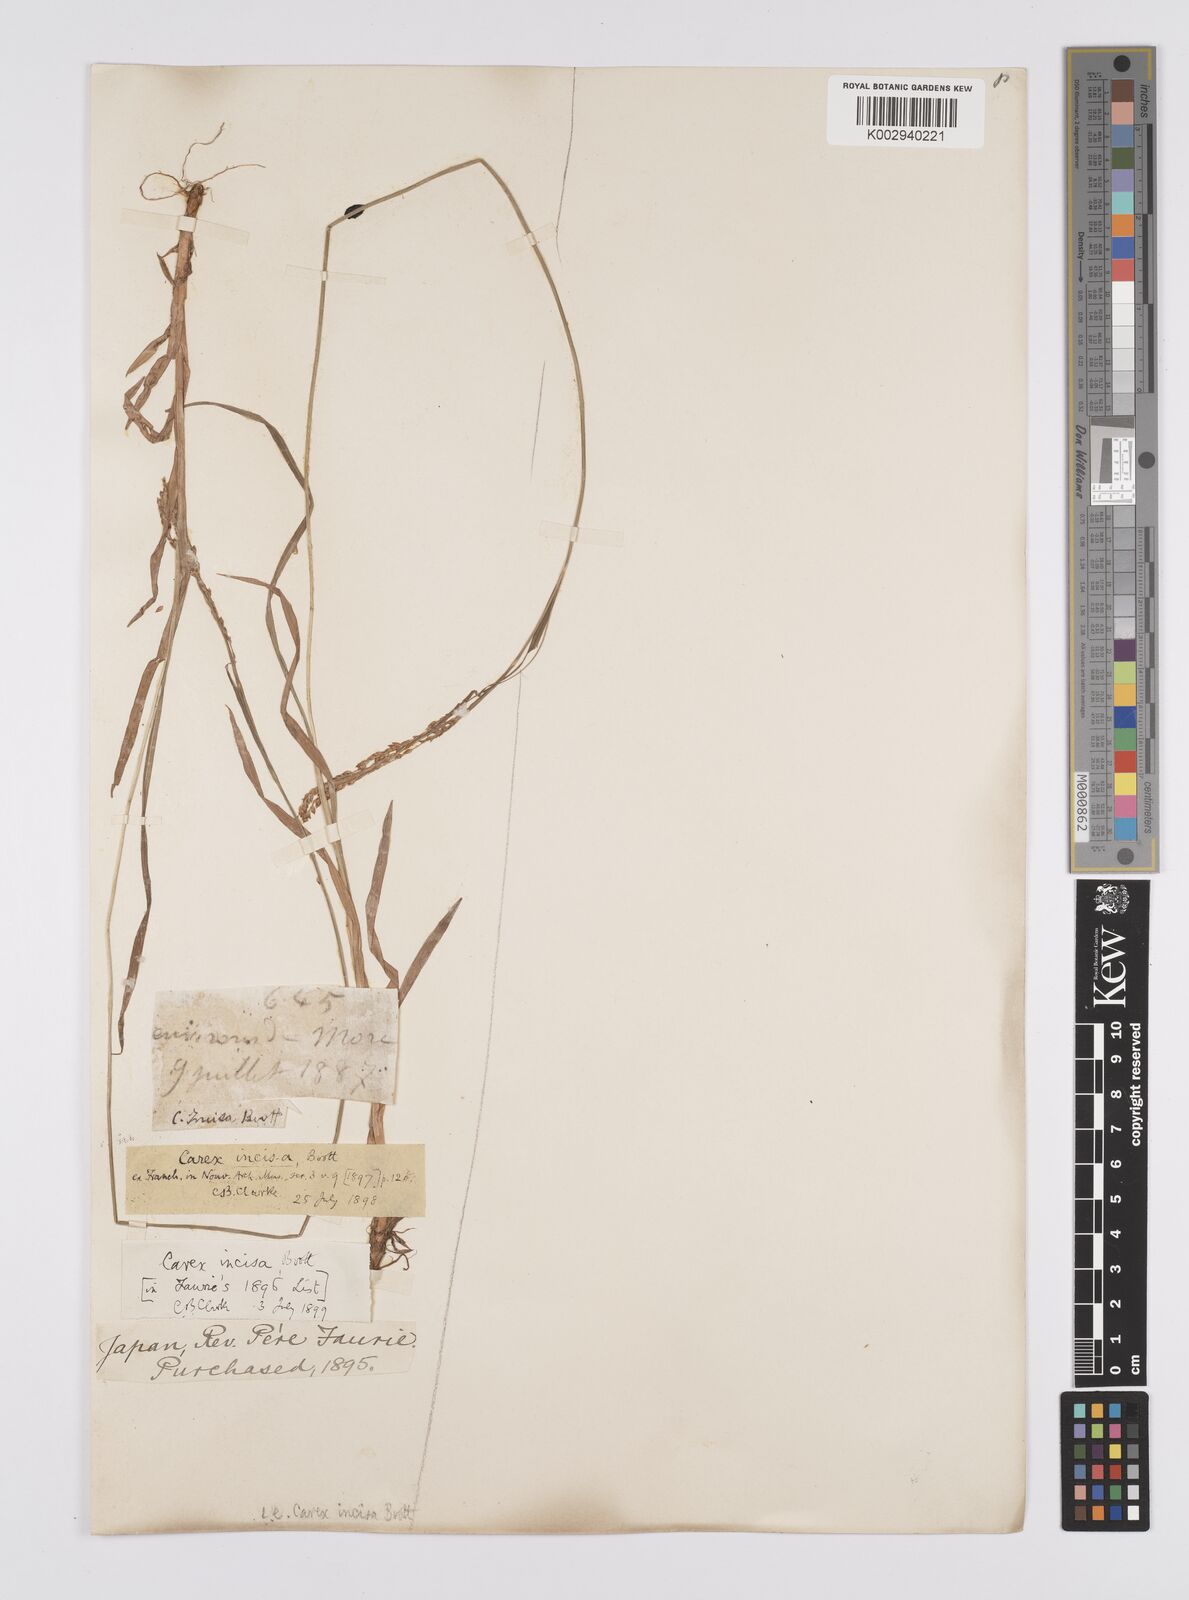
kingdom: Plantae
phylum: Tracheophyta
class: Liliopsida
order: Poales
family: Cyperaceae
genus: Carex
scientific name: Carex incisa
